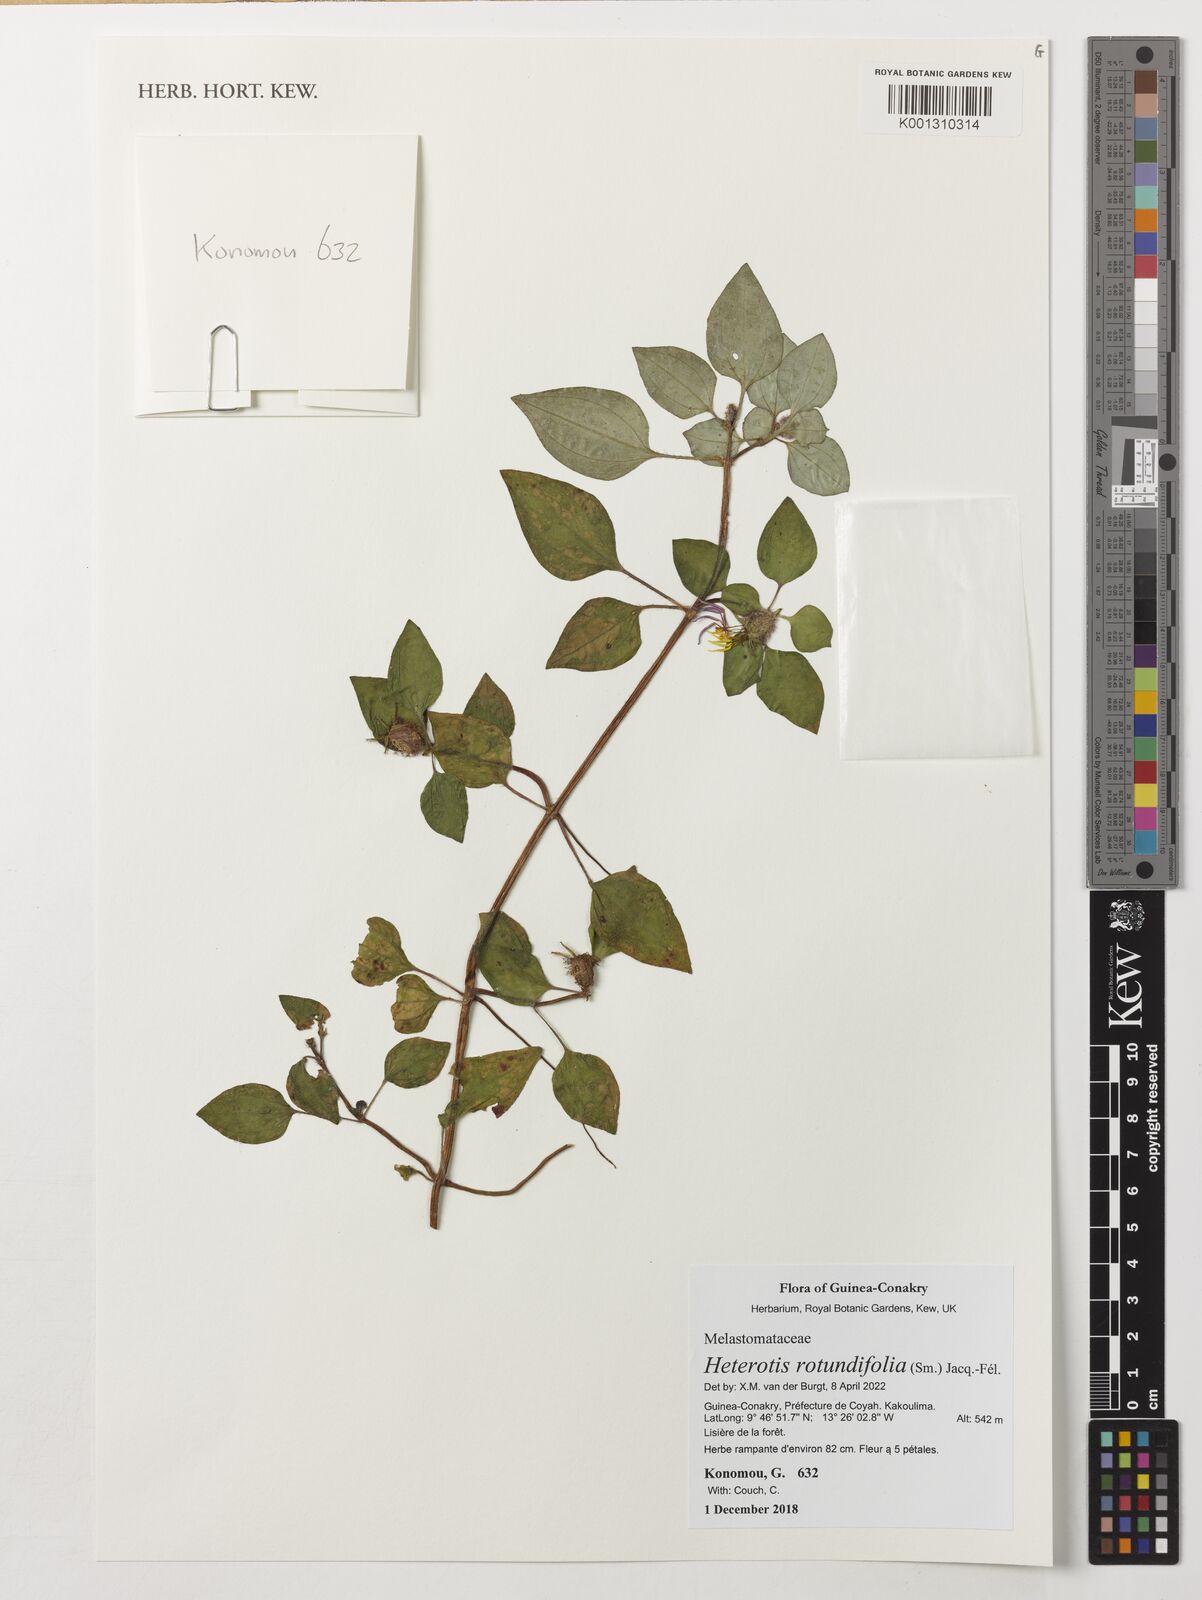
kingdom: Plantae
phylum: Tracheophyta
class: Magnoliopsida
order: Myrtales
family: Melastomataceae
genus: Heterotis
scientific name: Heterotis rotundifolia
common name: Pinklady
